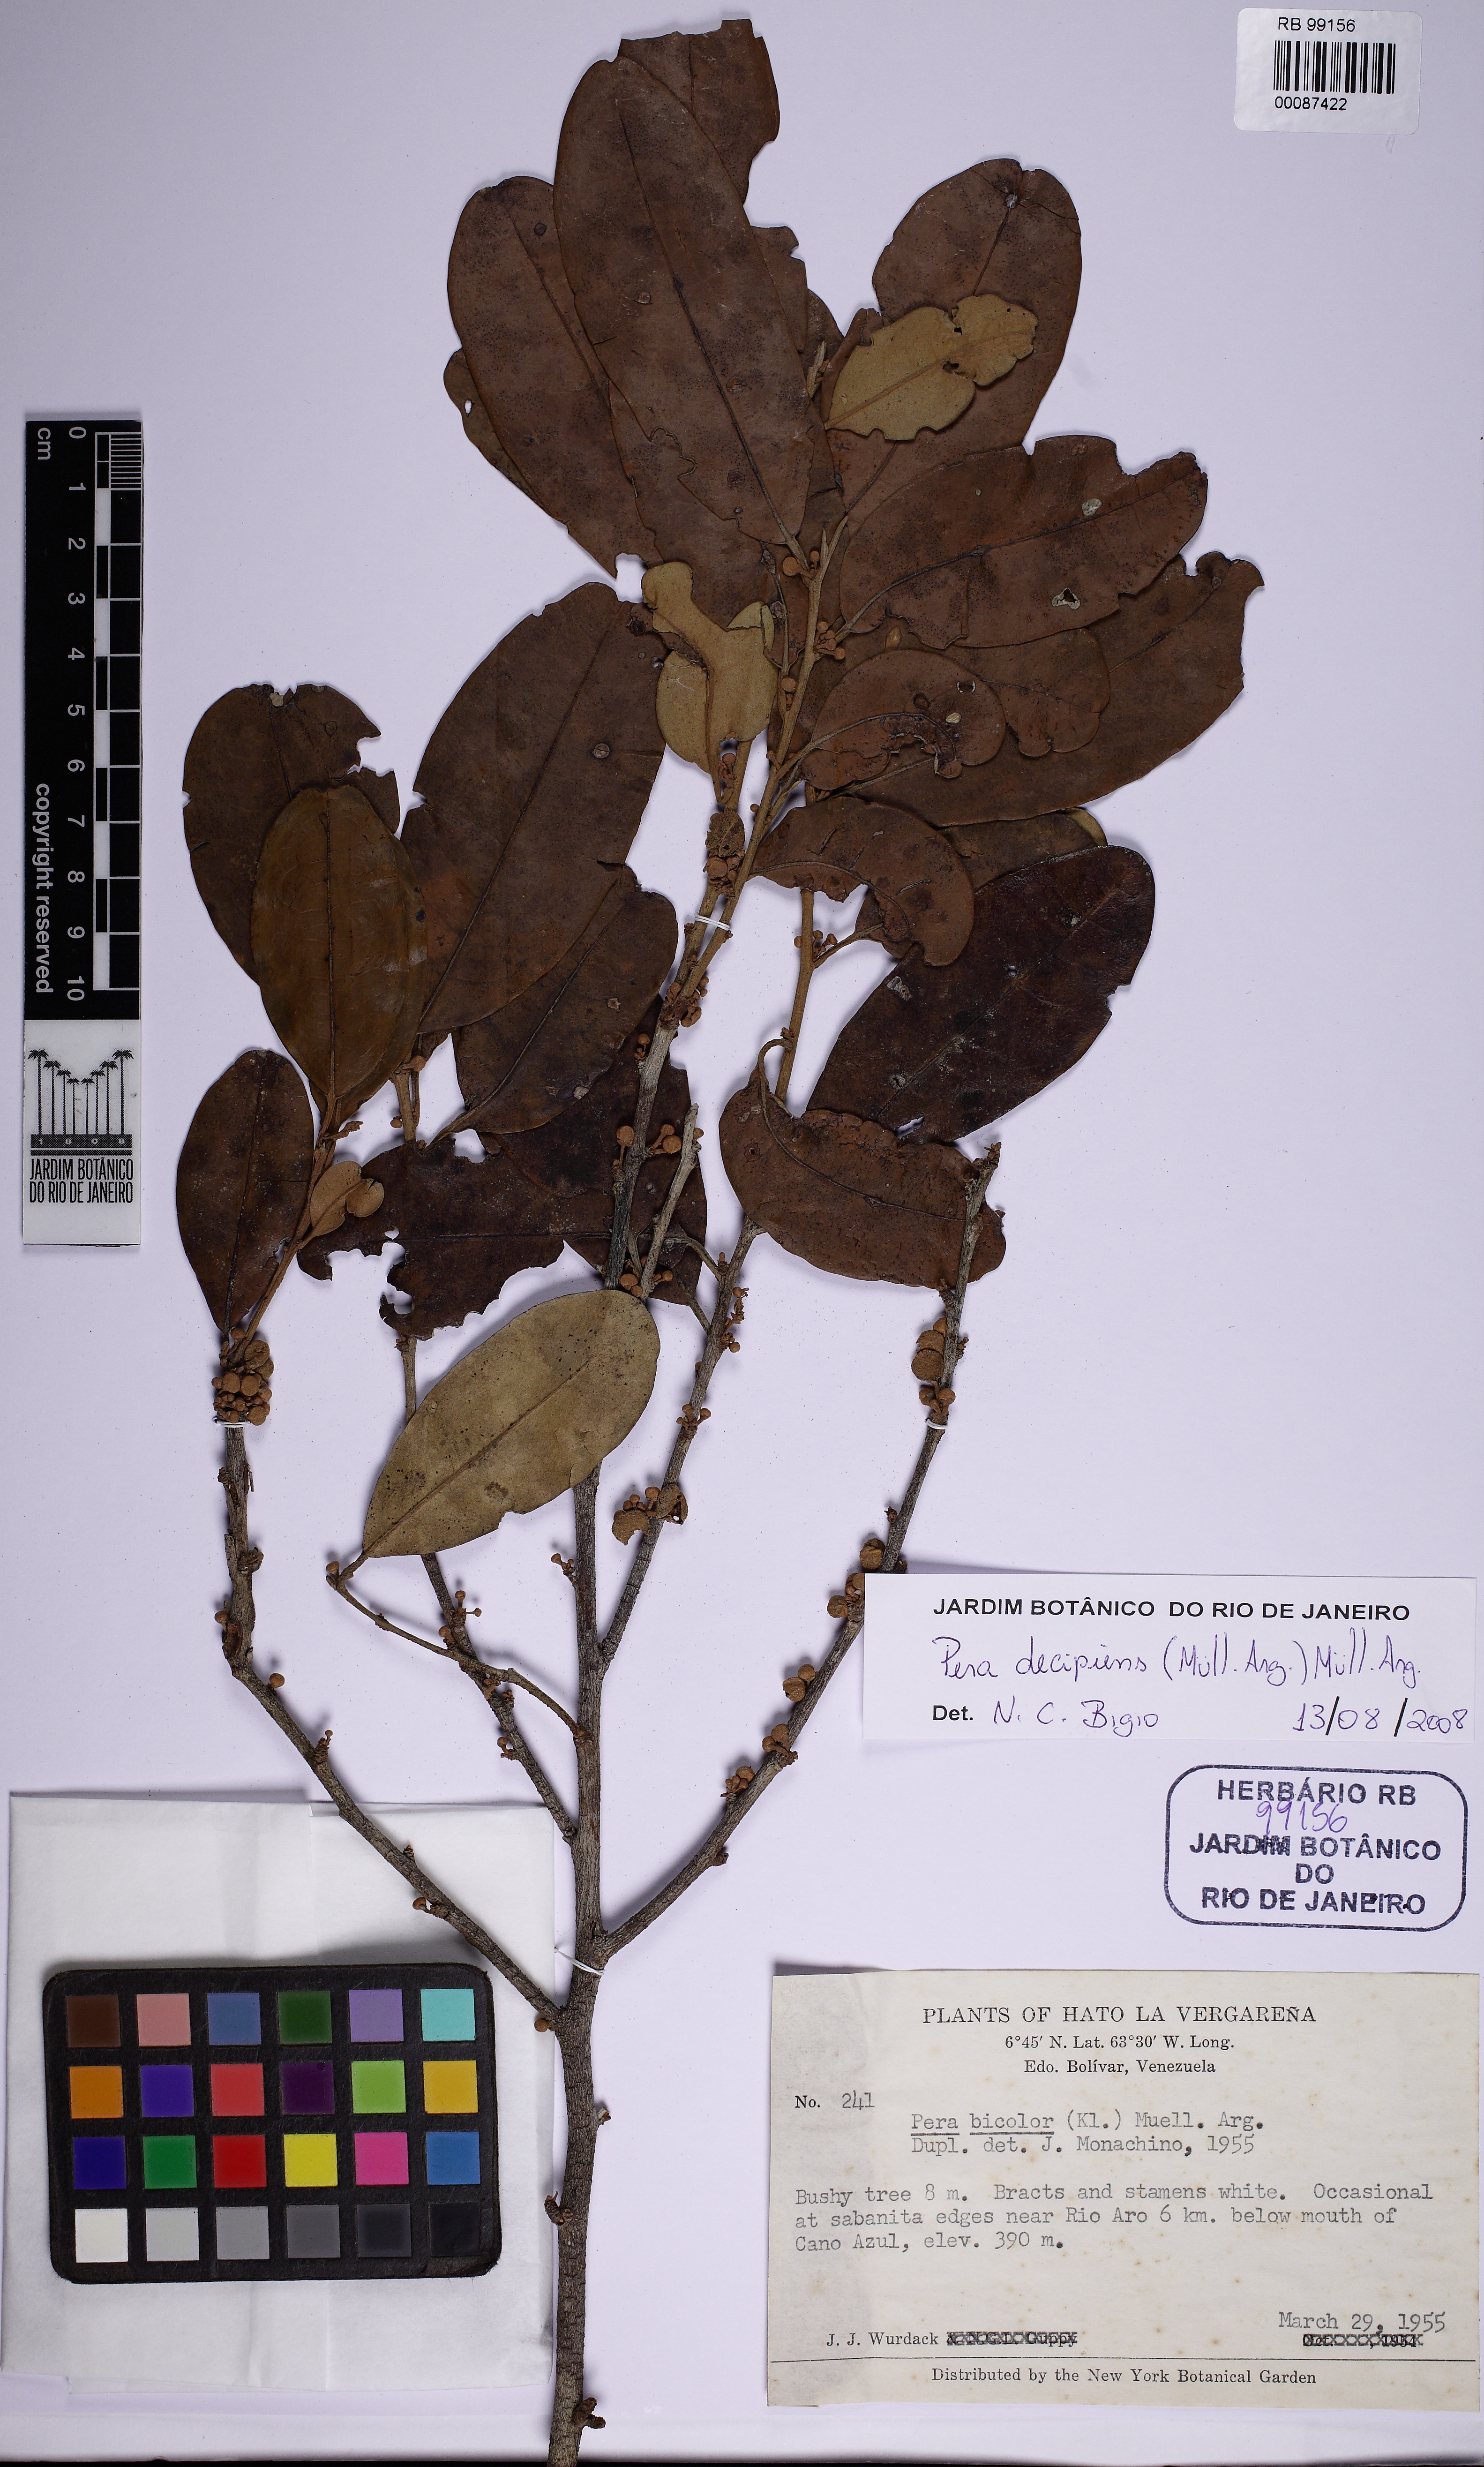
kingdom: Plantae
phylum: Tracheophyta
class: Magnoliopsida
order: Malpighiales
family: Peraceae
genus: Pera
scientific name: Pera decipiens
